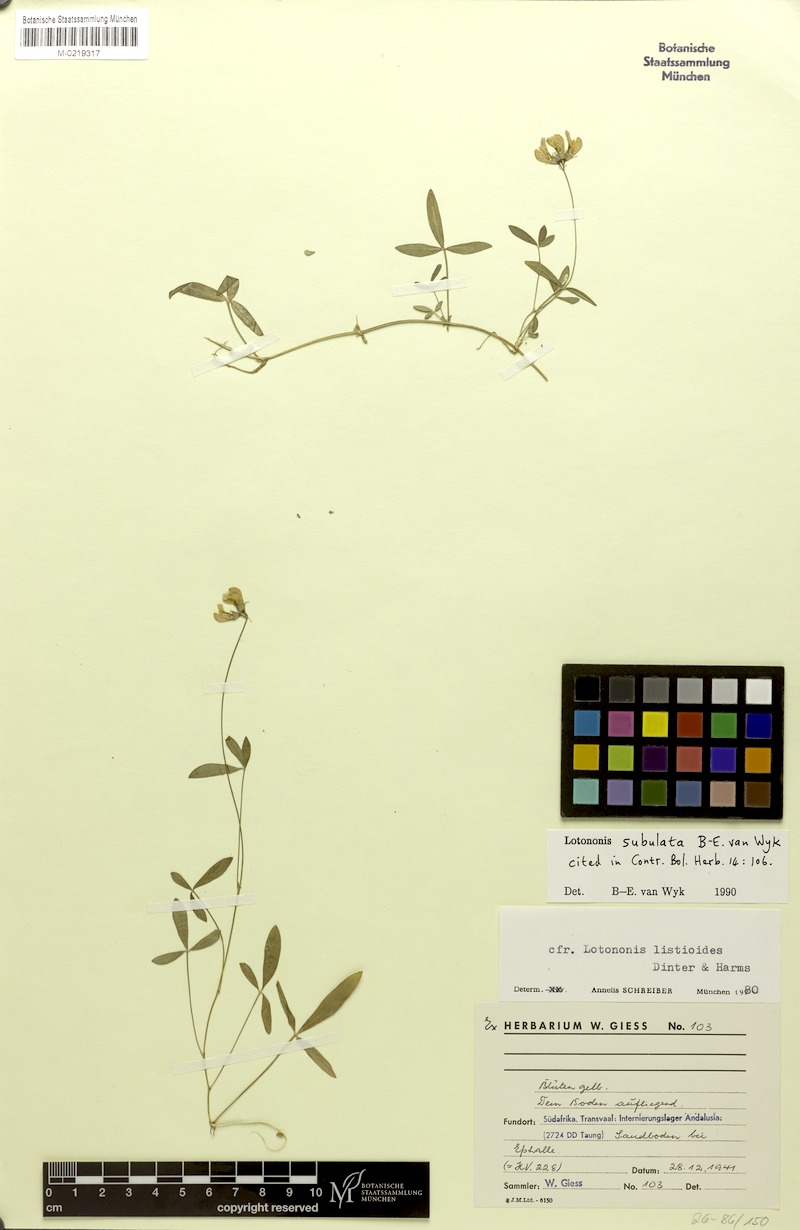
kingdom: Plantae
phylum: Tracheophyta
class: Magnoliopsida
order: Fabales
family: Fabaceae
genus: Listia
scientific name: Listia subulata
